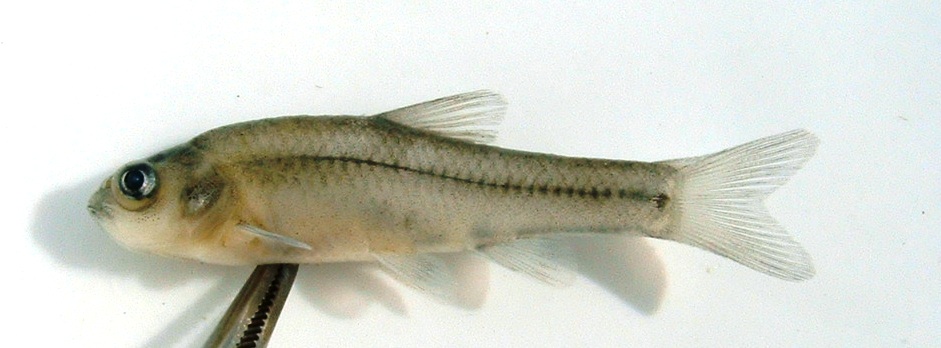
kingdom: Animalia
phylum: Chordata
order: Cypriniformes
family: Cyprinidae
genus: Enteromius
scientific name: Enteromius anoplus
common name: Chubbyhead barb
